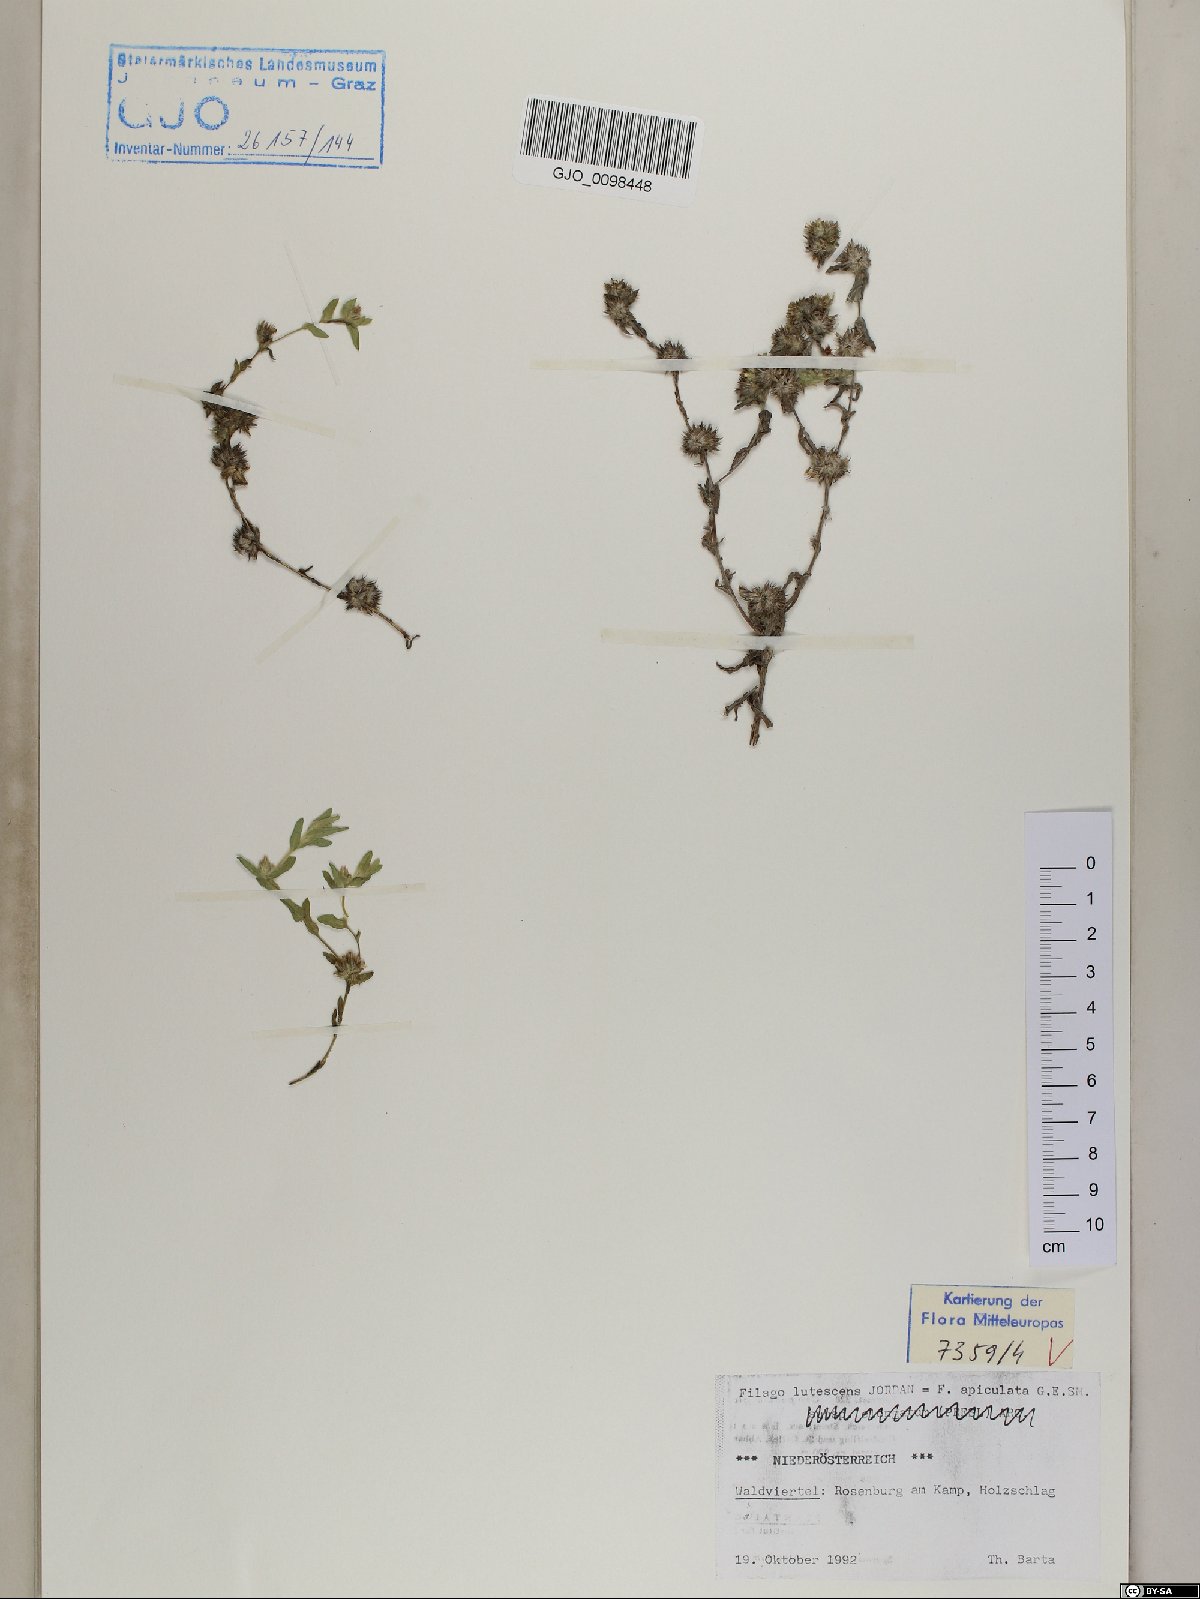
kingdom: Plantae
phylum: Tracheophyta
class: Magnoliopsida
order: Asterales
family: Asteraceae
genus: Filago
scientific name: Filago lutescens
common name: Red-tipped cudweed
